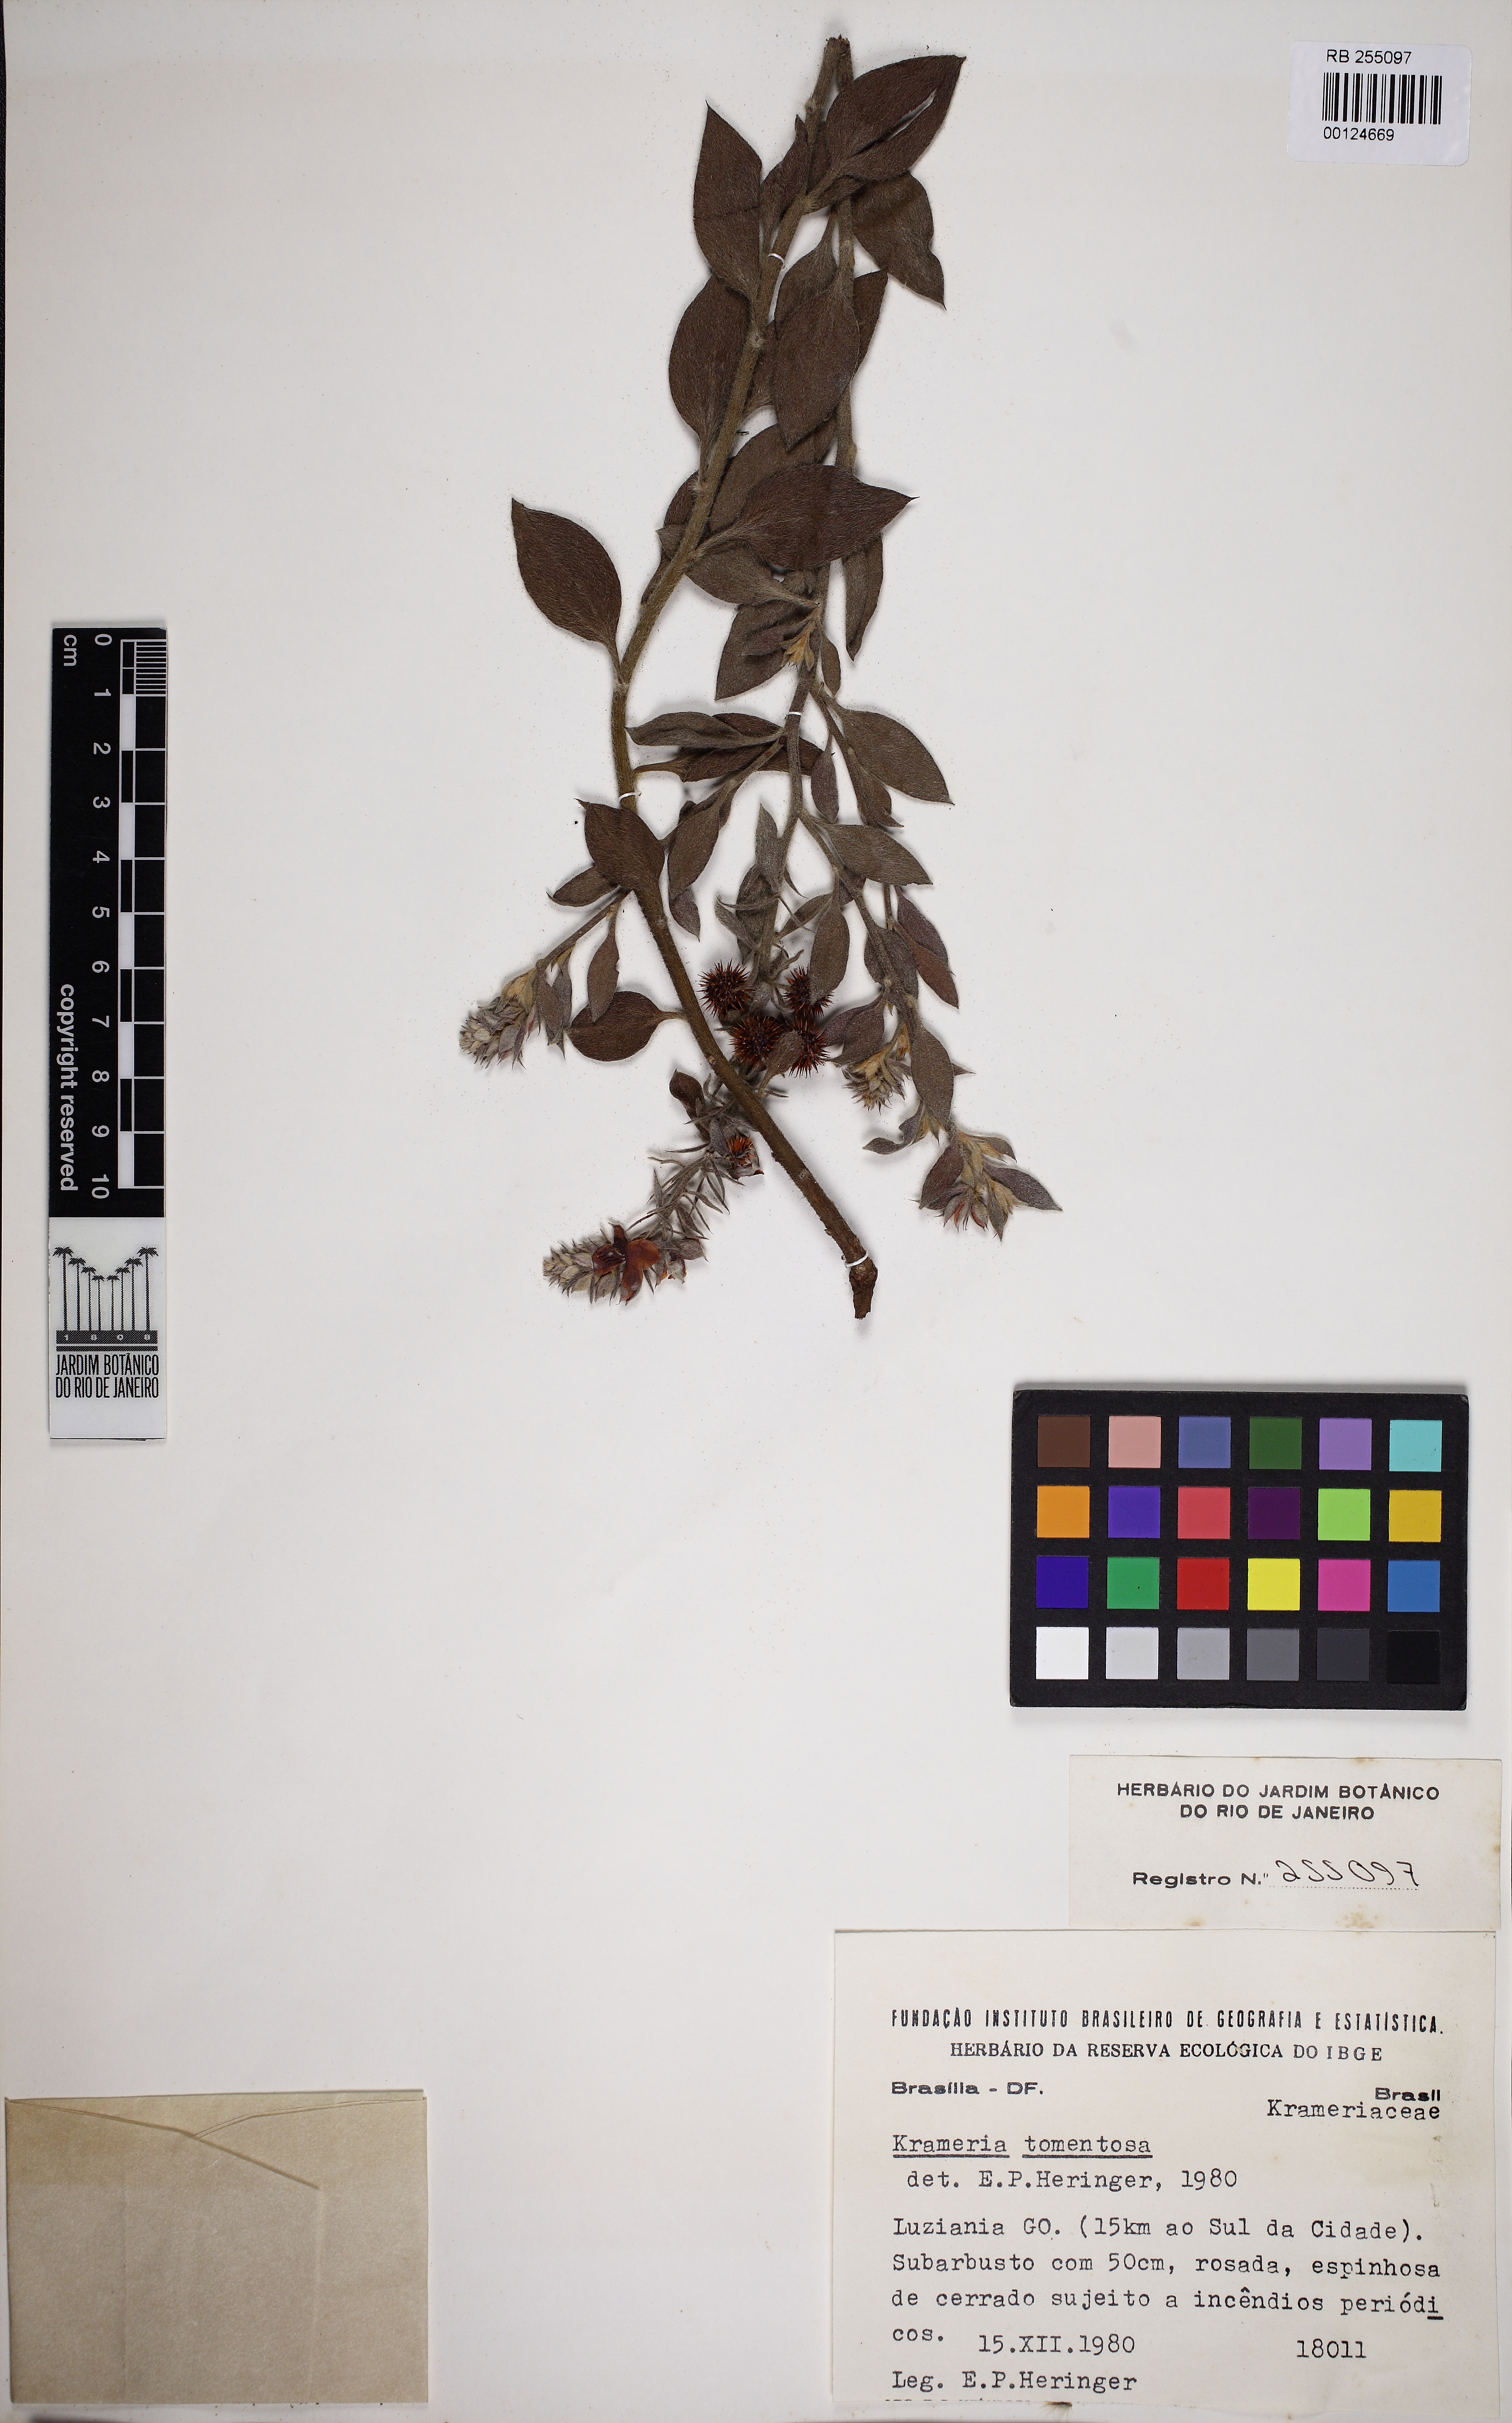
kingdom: Plantae
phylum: Tracheophyta
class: Magnoliopsida
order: Zygophyllales
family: Krameriaceae
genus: Krameria
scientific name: Krameria tomentosa
